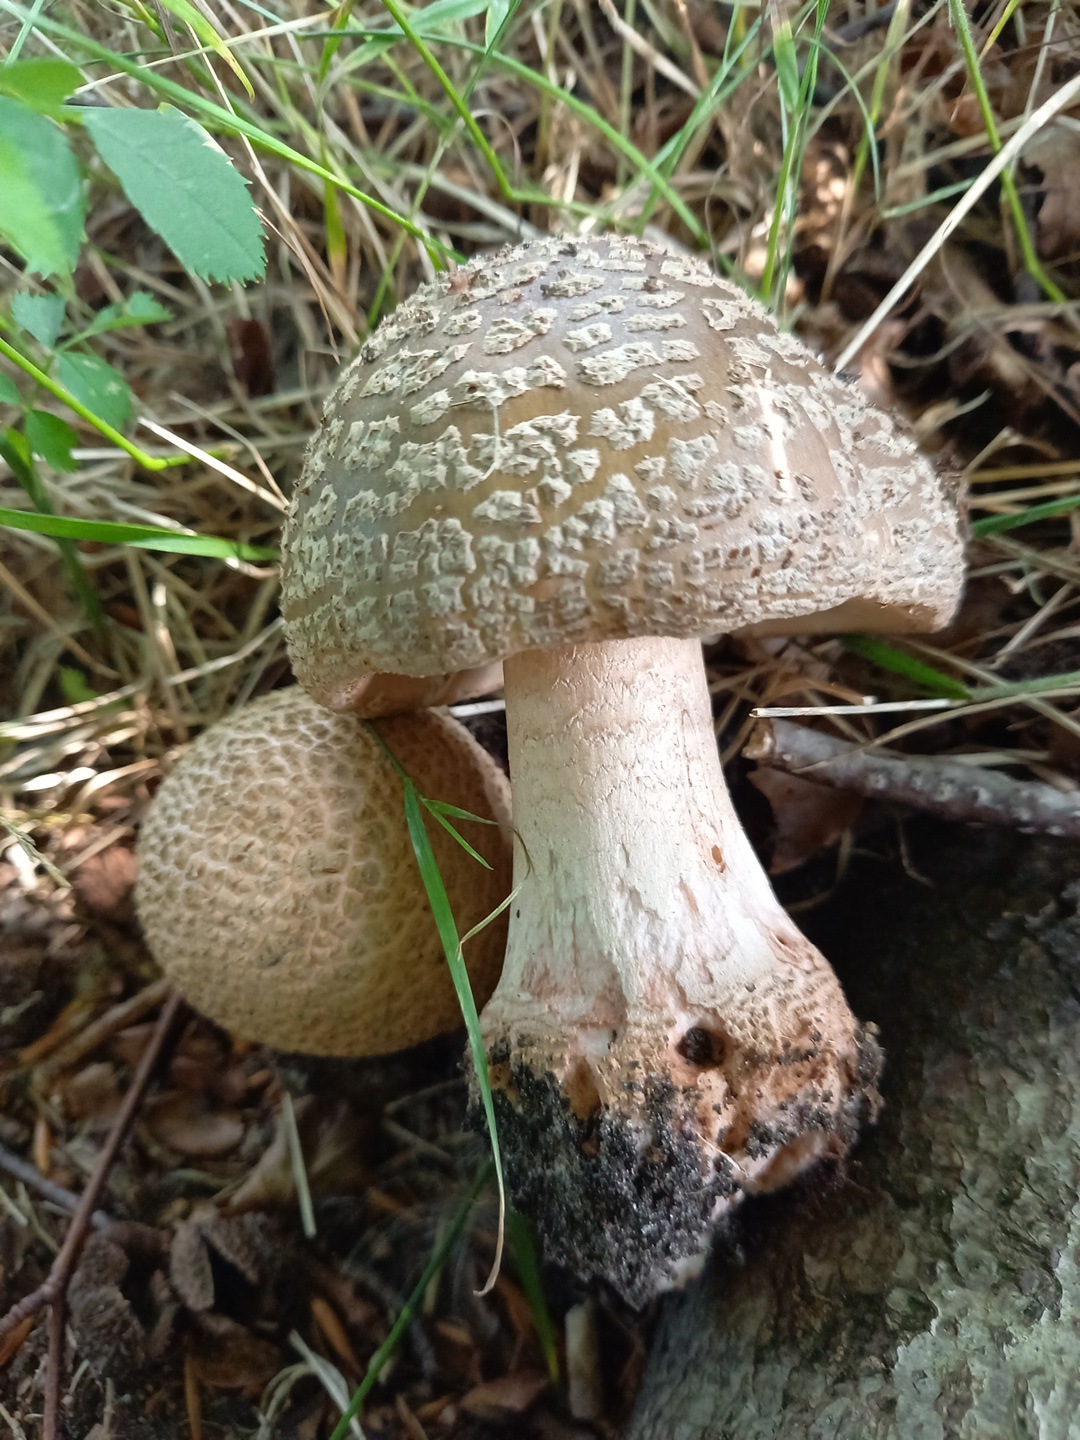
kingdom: Fungi
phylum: Basidiomycota
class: Agaricomycetes
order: Agaricales
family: Amanitaceae
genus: Amanita
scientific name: Amanita rubescens
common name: rødmende fluesvamp
